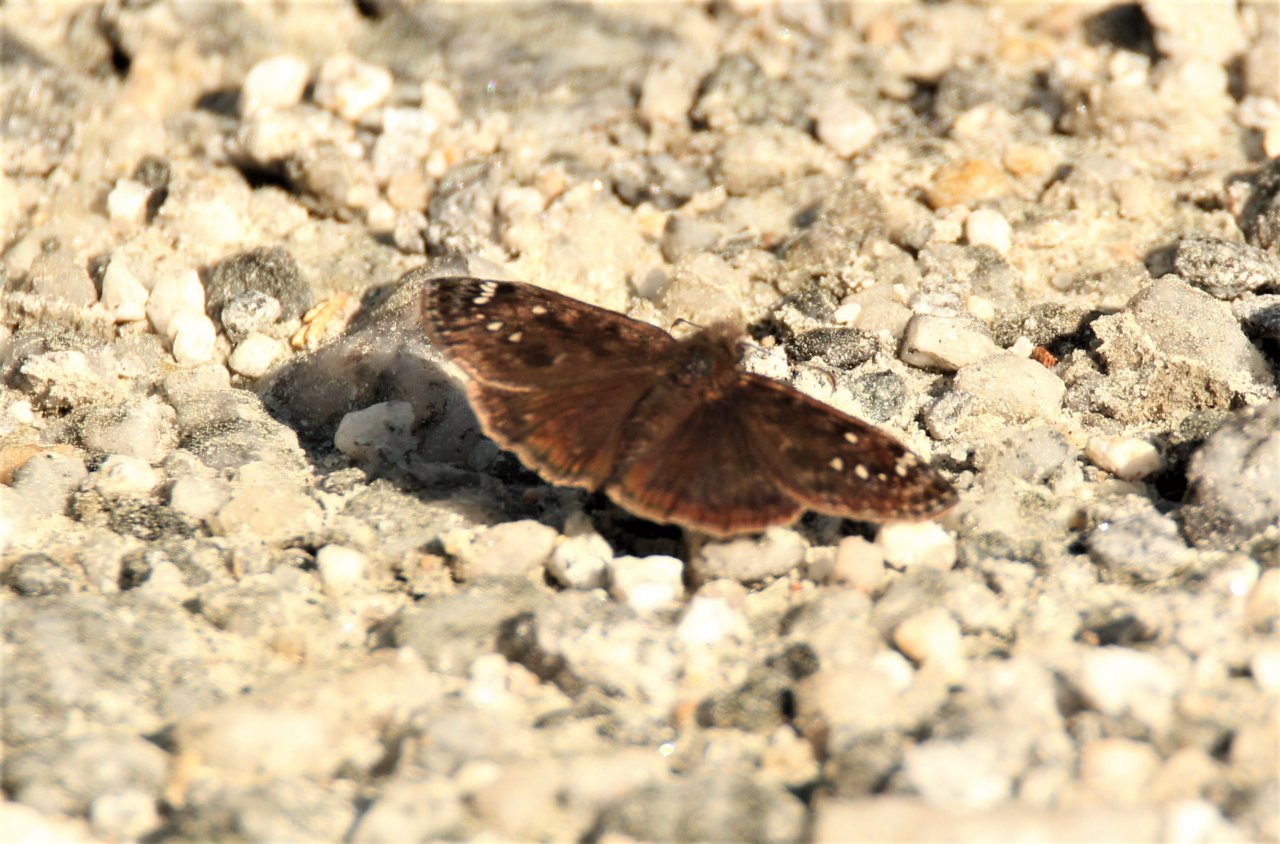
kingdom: Animalia
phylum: Arthropoda
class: Insecta
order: Lepidoptera
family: Hesperiidae
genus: Gesta
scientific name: Gesta
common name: Horace's Duskywing
